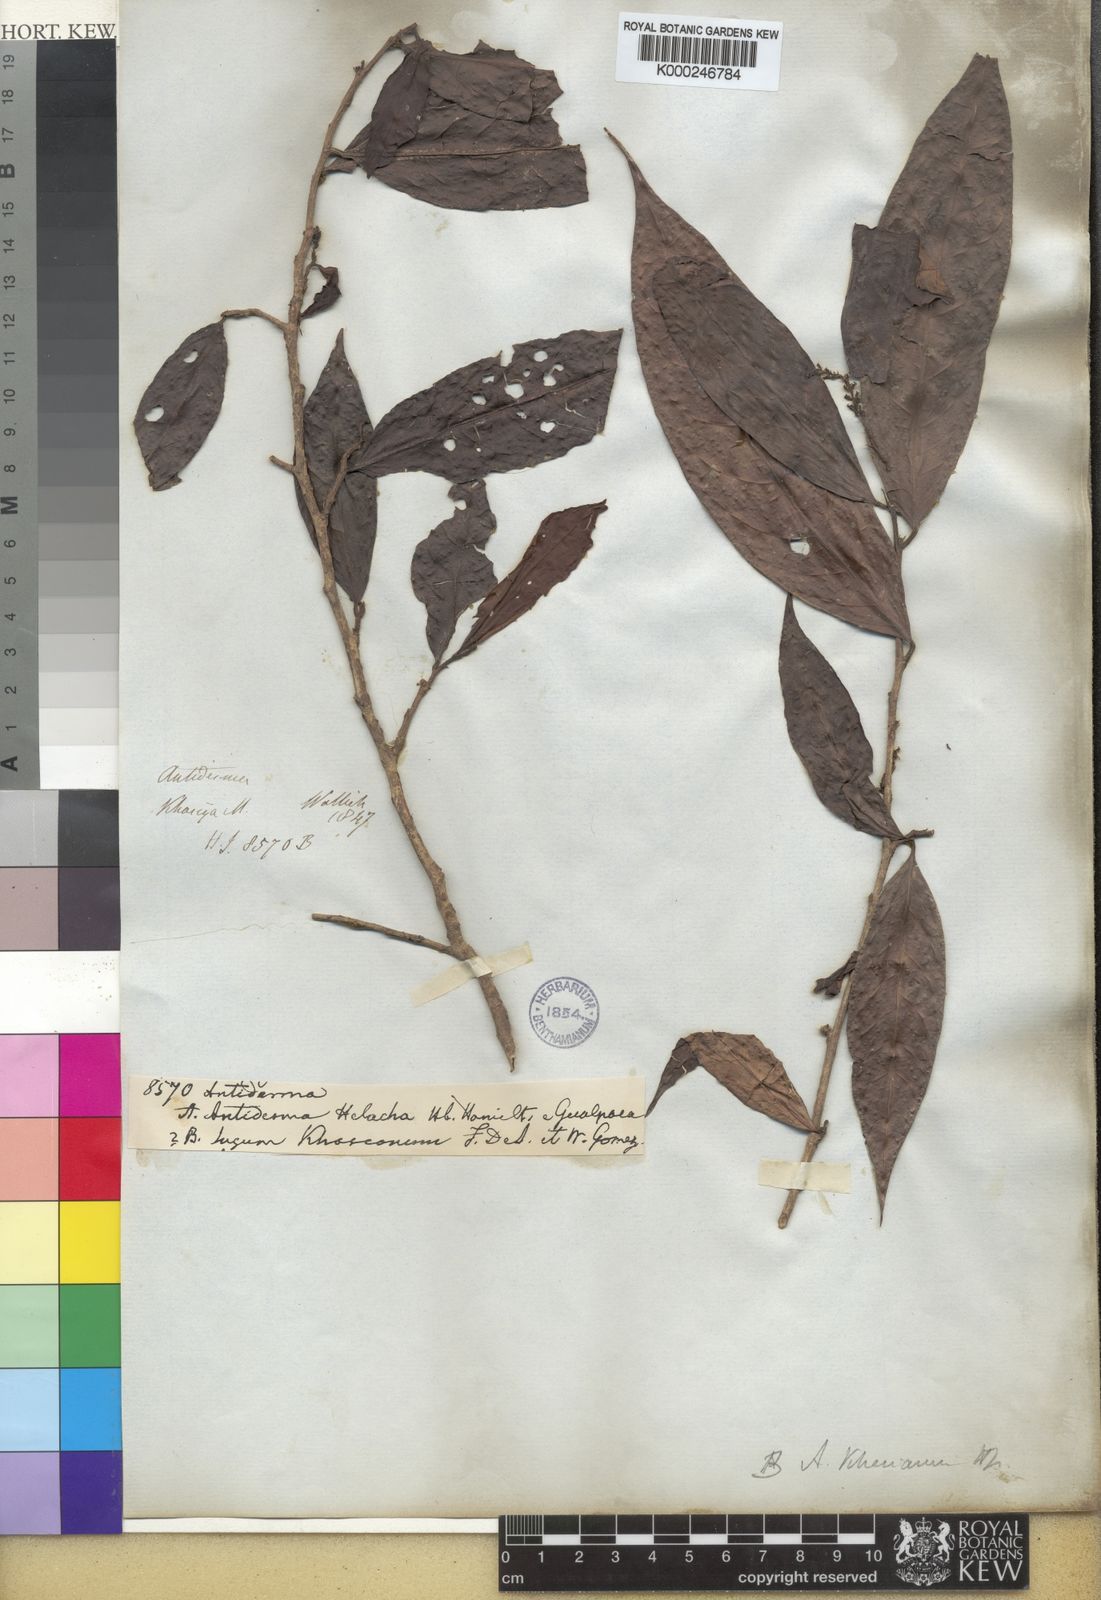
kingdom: Plantae
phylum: Tracheophyta
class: Magnoliopsida
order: Malpighiales
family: Phyllanthaceae
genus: Antidesma
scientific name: Antidesma khasianum
